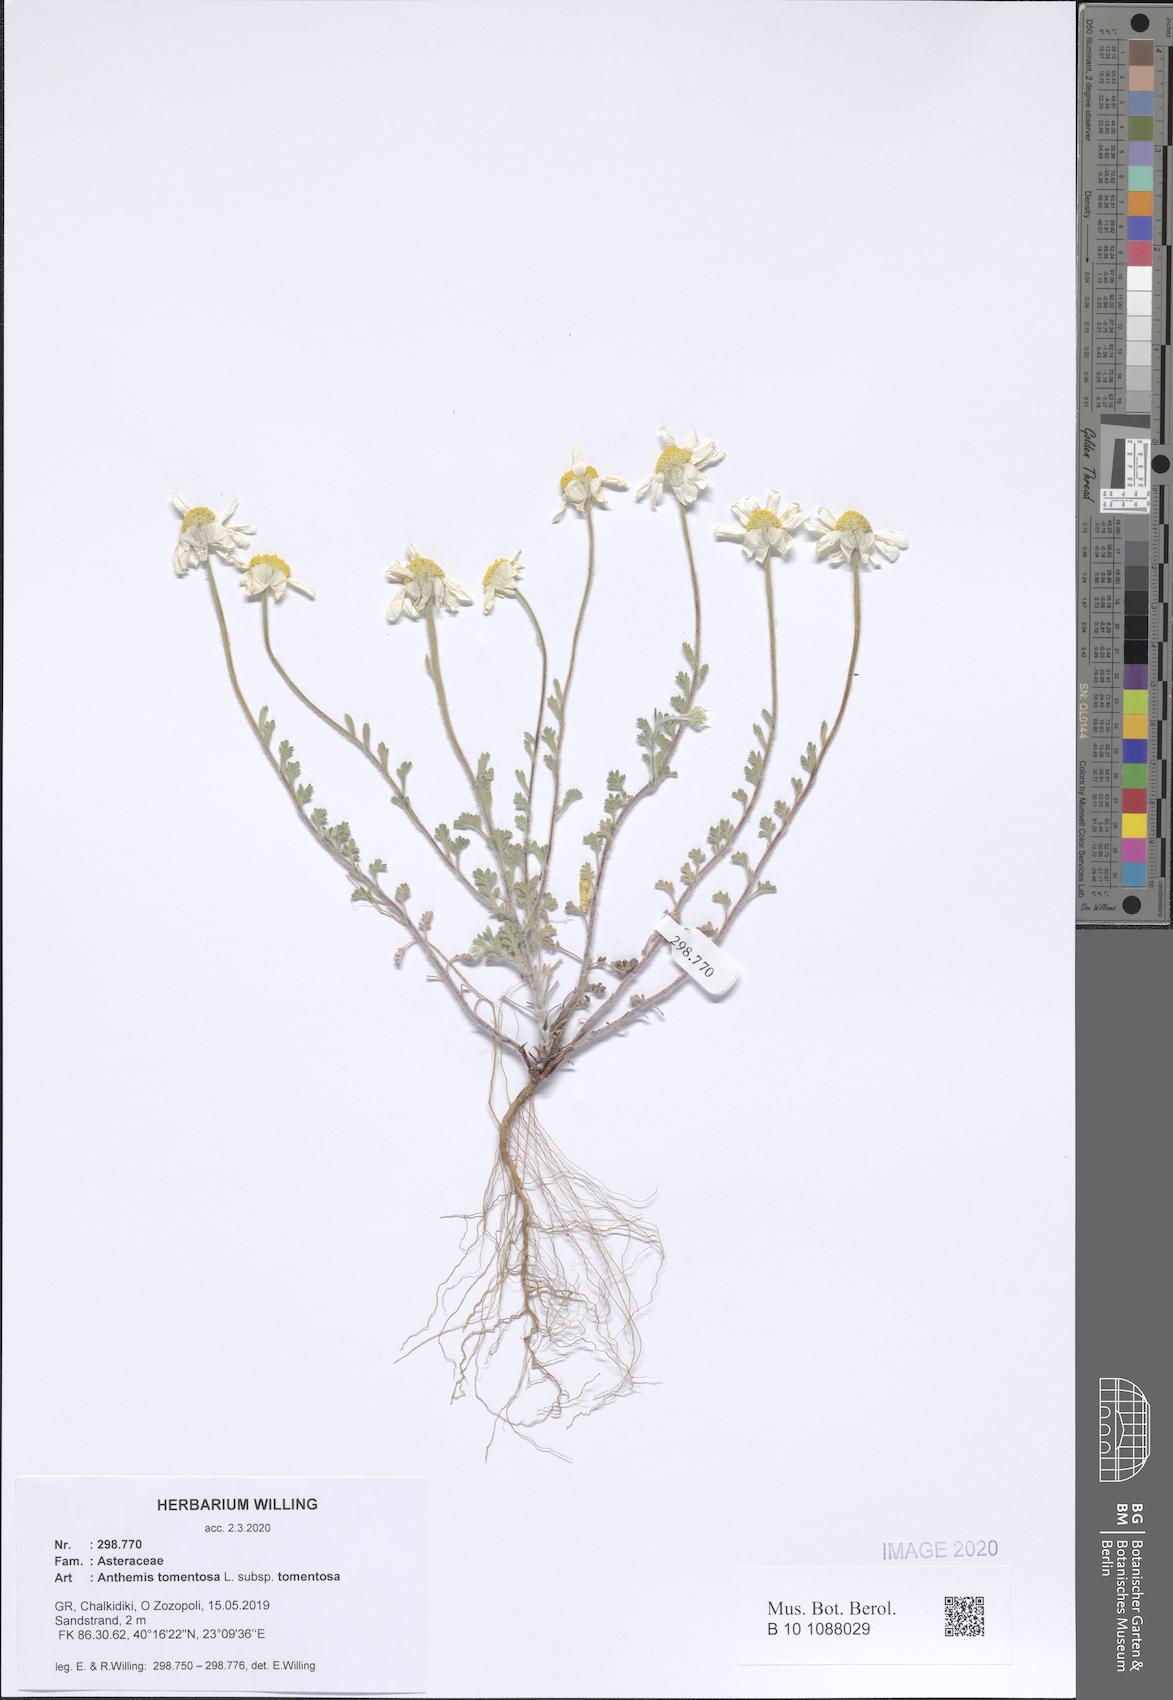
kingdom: Plantae
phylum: Tracheophyta
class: Magnoliopsida
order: Asterales
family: Asteraceae
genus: Anthemis
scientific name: Anthemis tomentosa
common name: Woolly chamomile
